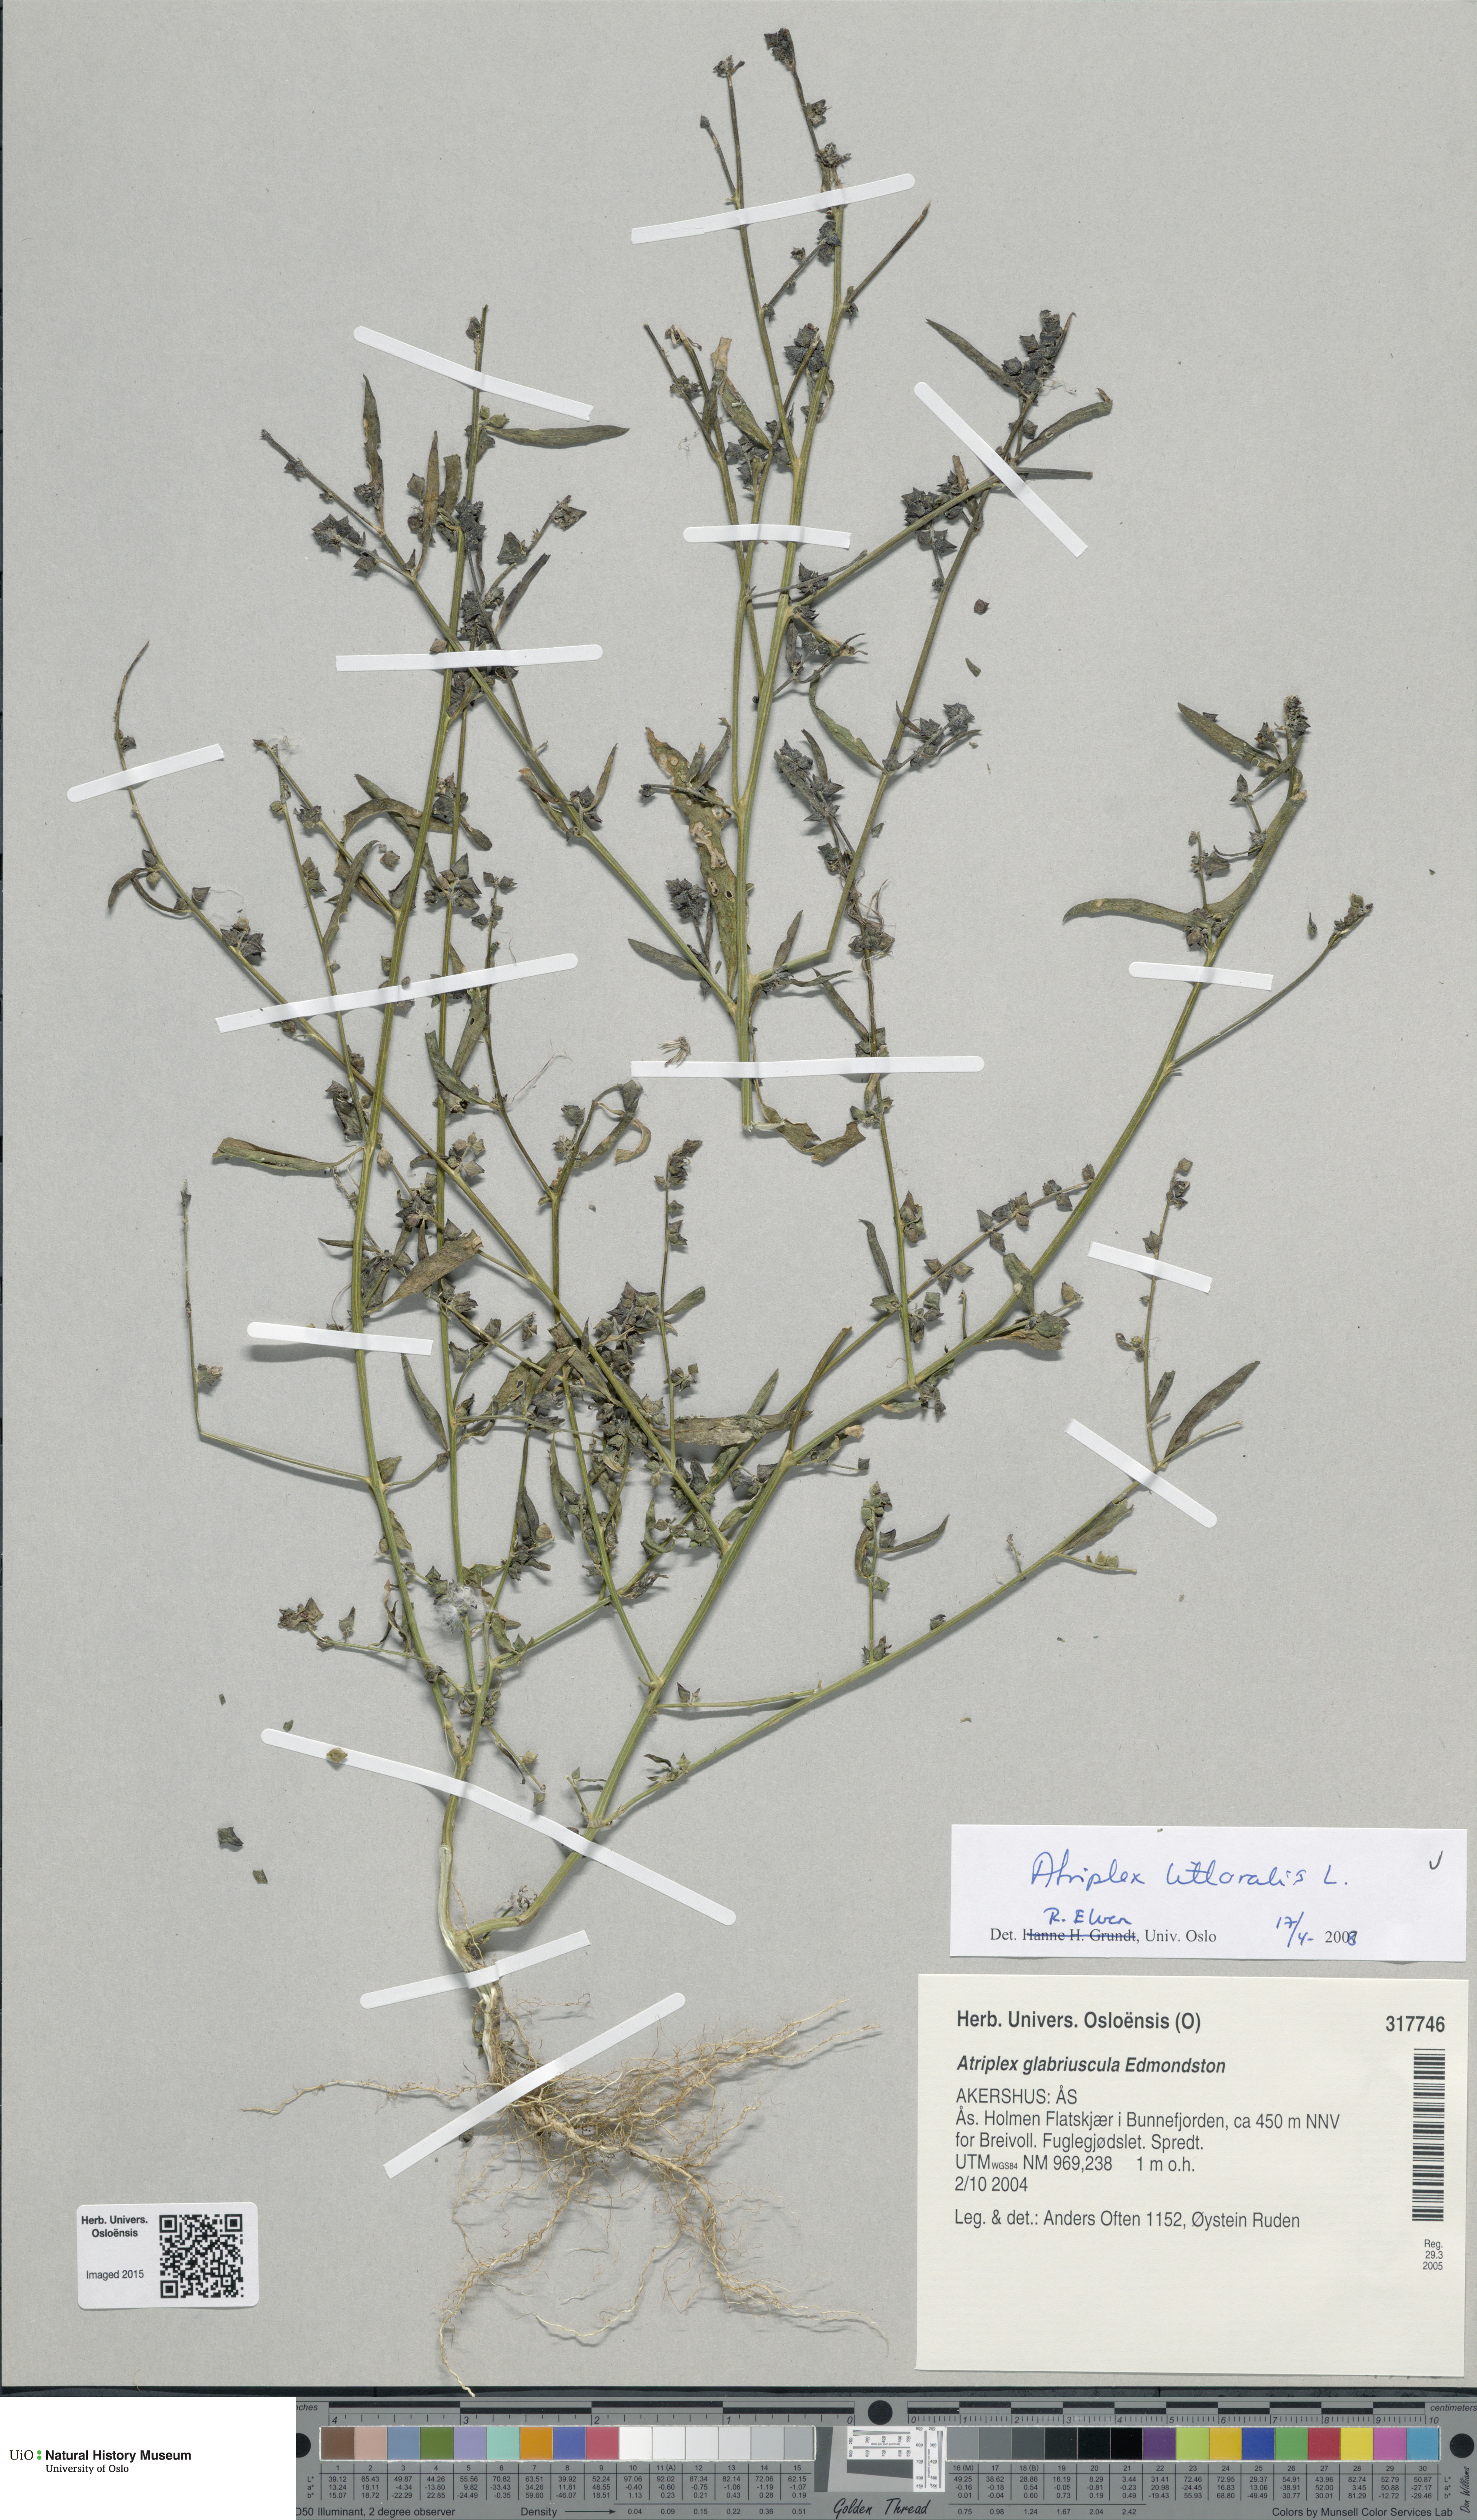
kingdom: Plantae
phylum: Tracheophyta
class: Magnoliopsida
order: Caryophyllales
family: Amaranthaceae
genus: Atriplex
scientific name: Atriplex littoralis
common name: Grass-leaved orache
